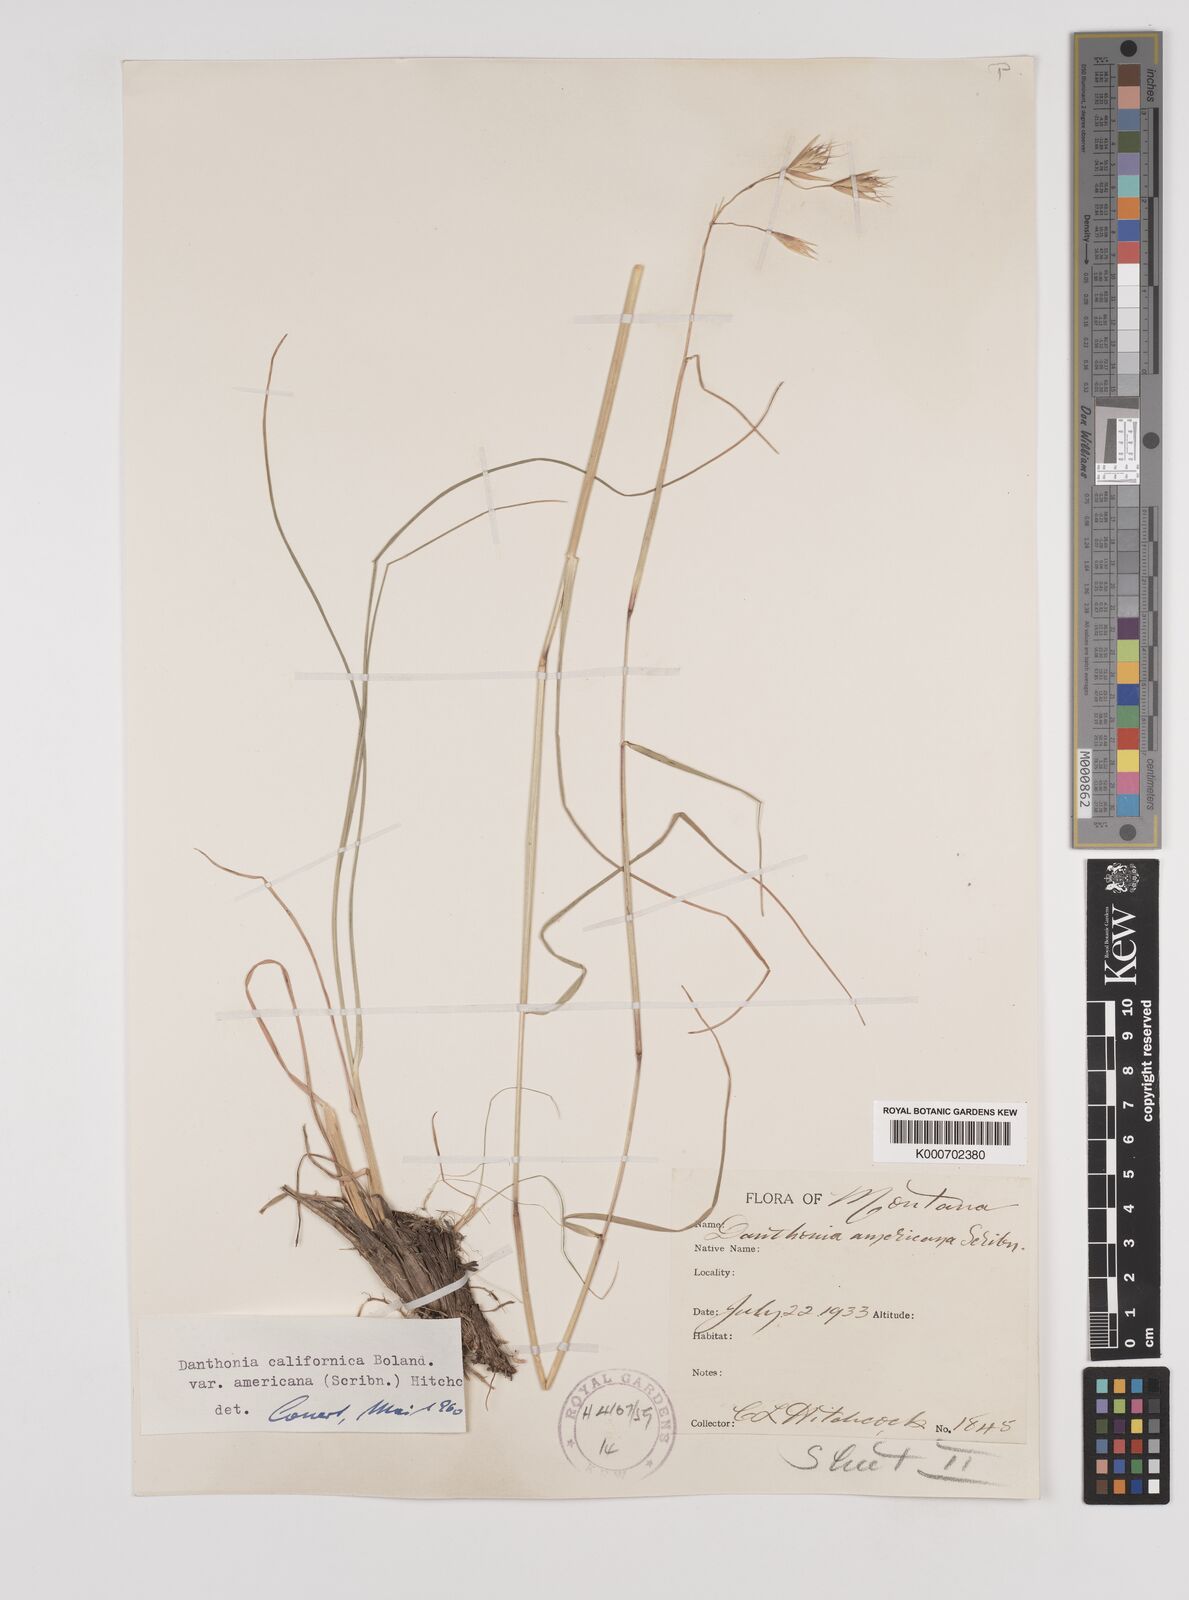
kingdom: Plantae
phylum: Tracheophyta
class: Liliopsida
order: Poales
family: Poaceae
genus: Danthonia
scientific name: Danthonia californica
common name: California oat grass
